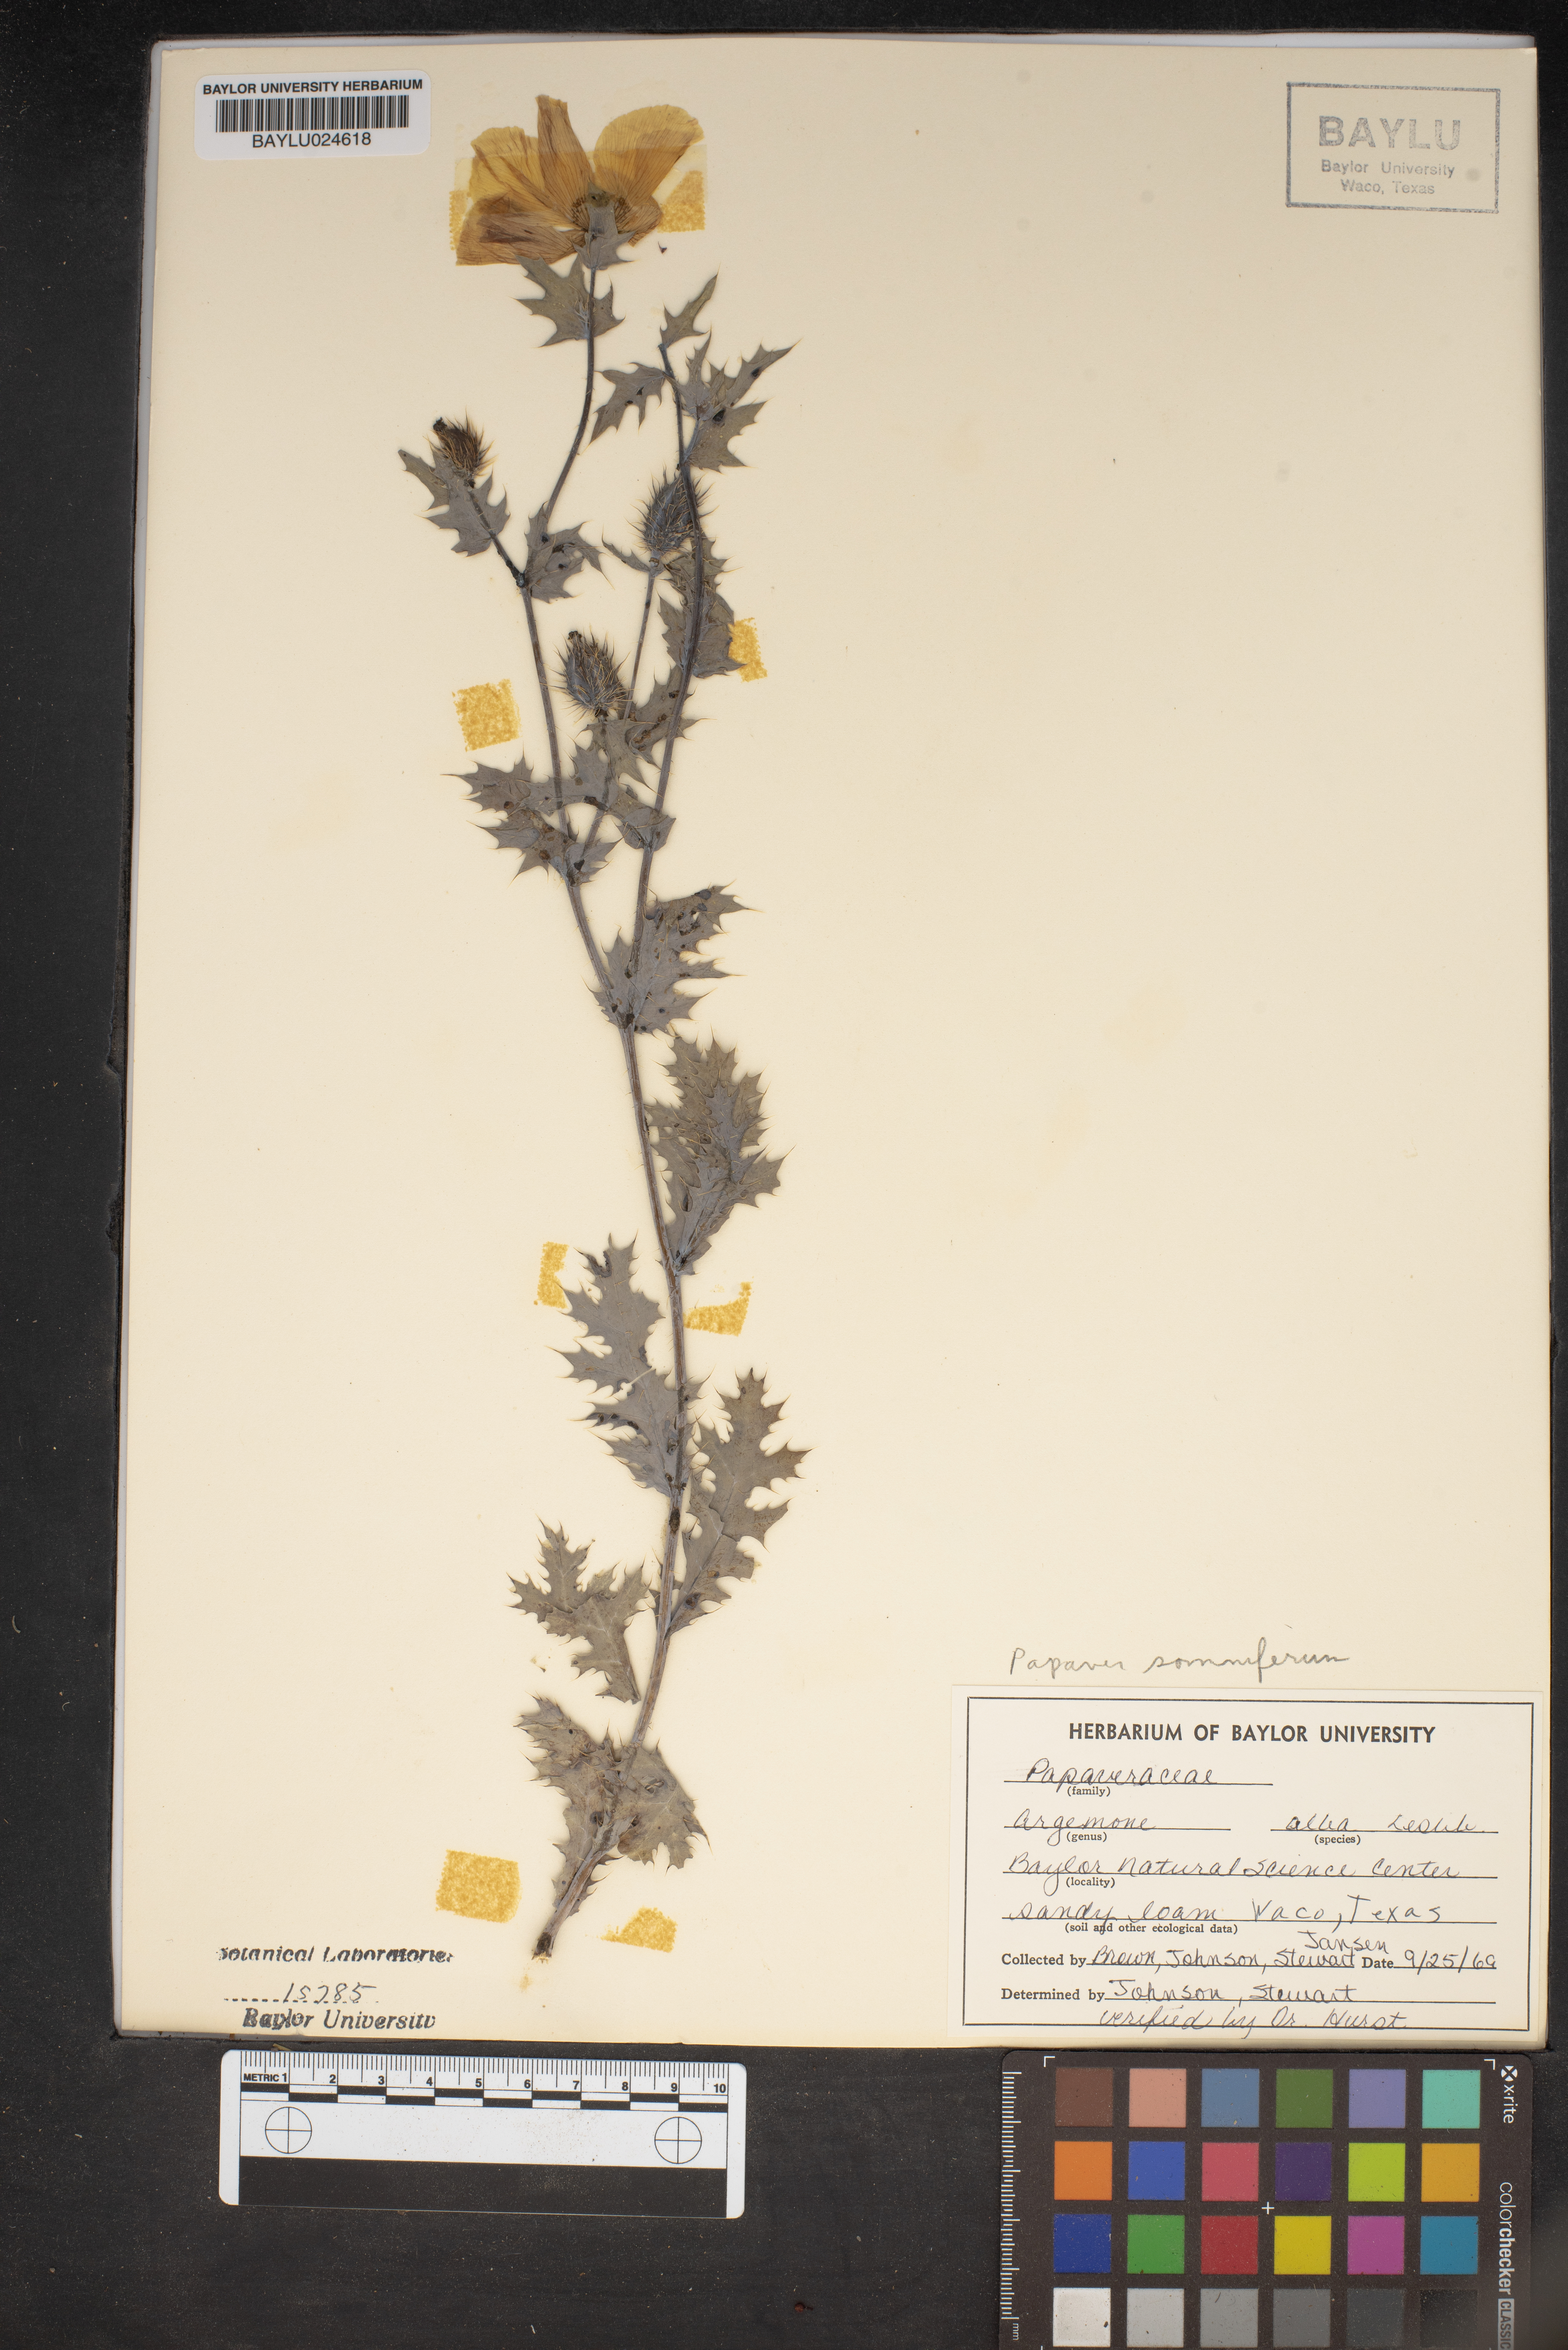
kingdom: Plantae
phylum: Tracheophyta
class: Magnoliopsida
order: Ranunculales
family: Papaveraceae
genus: Argemone
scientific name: Argemone albiflora
